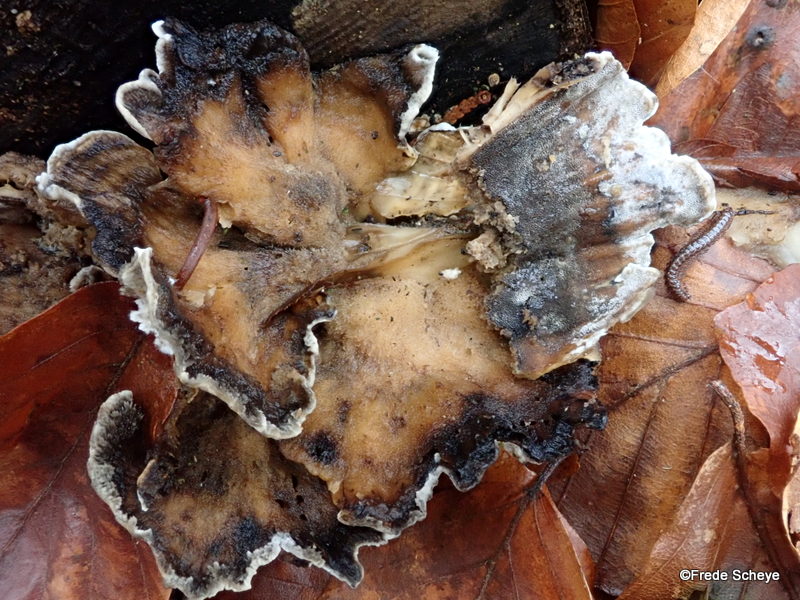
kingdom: Fungi
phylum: Basidiomycota
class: Agaricomycetes
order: Polyporales
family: Phanerochaetaceae
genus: Bjerkandera
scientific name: Bjerkandera adusta
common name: sveden sodporesvamp
